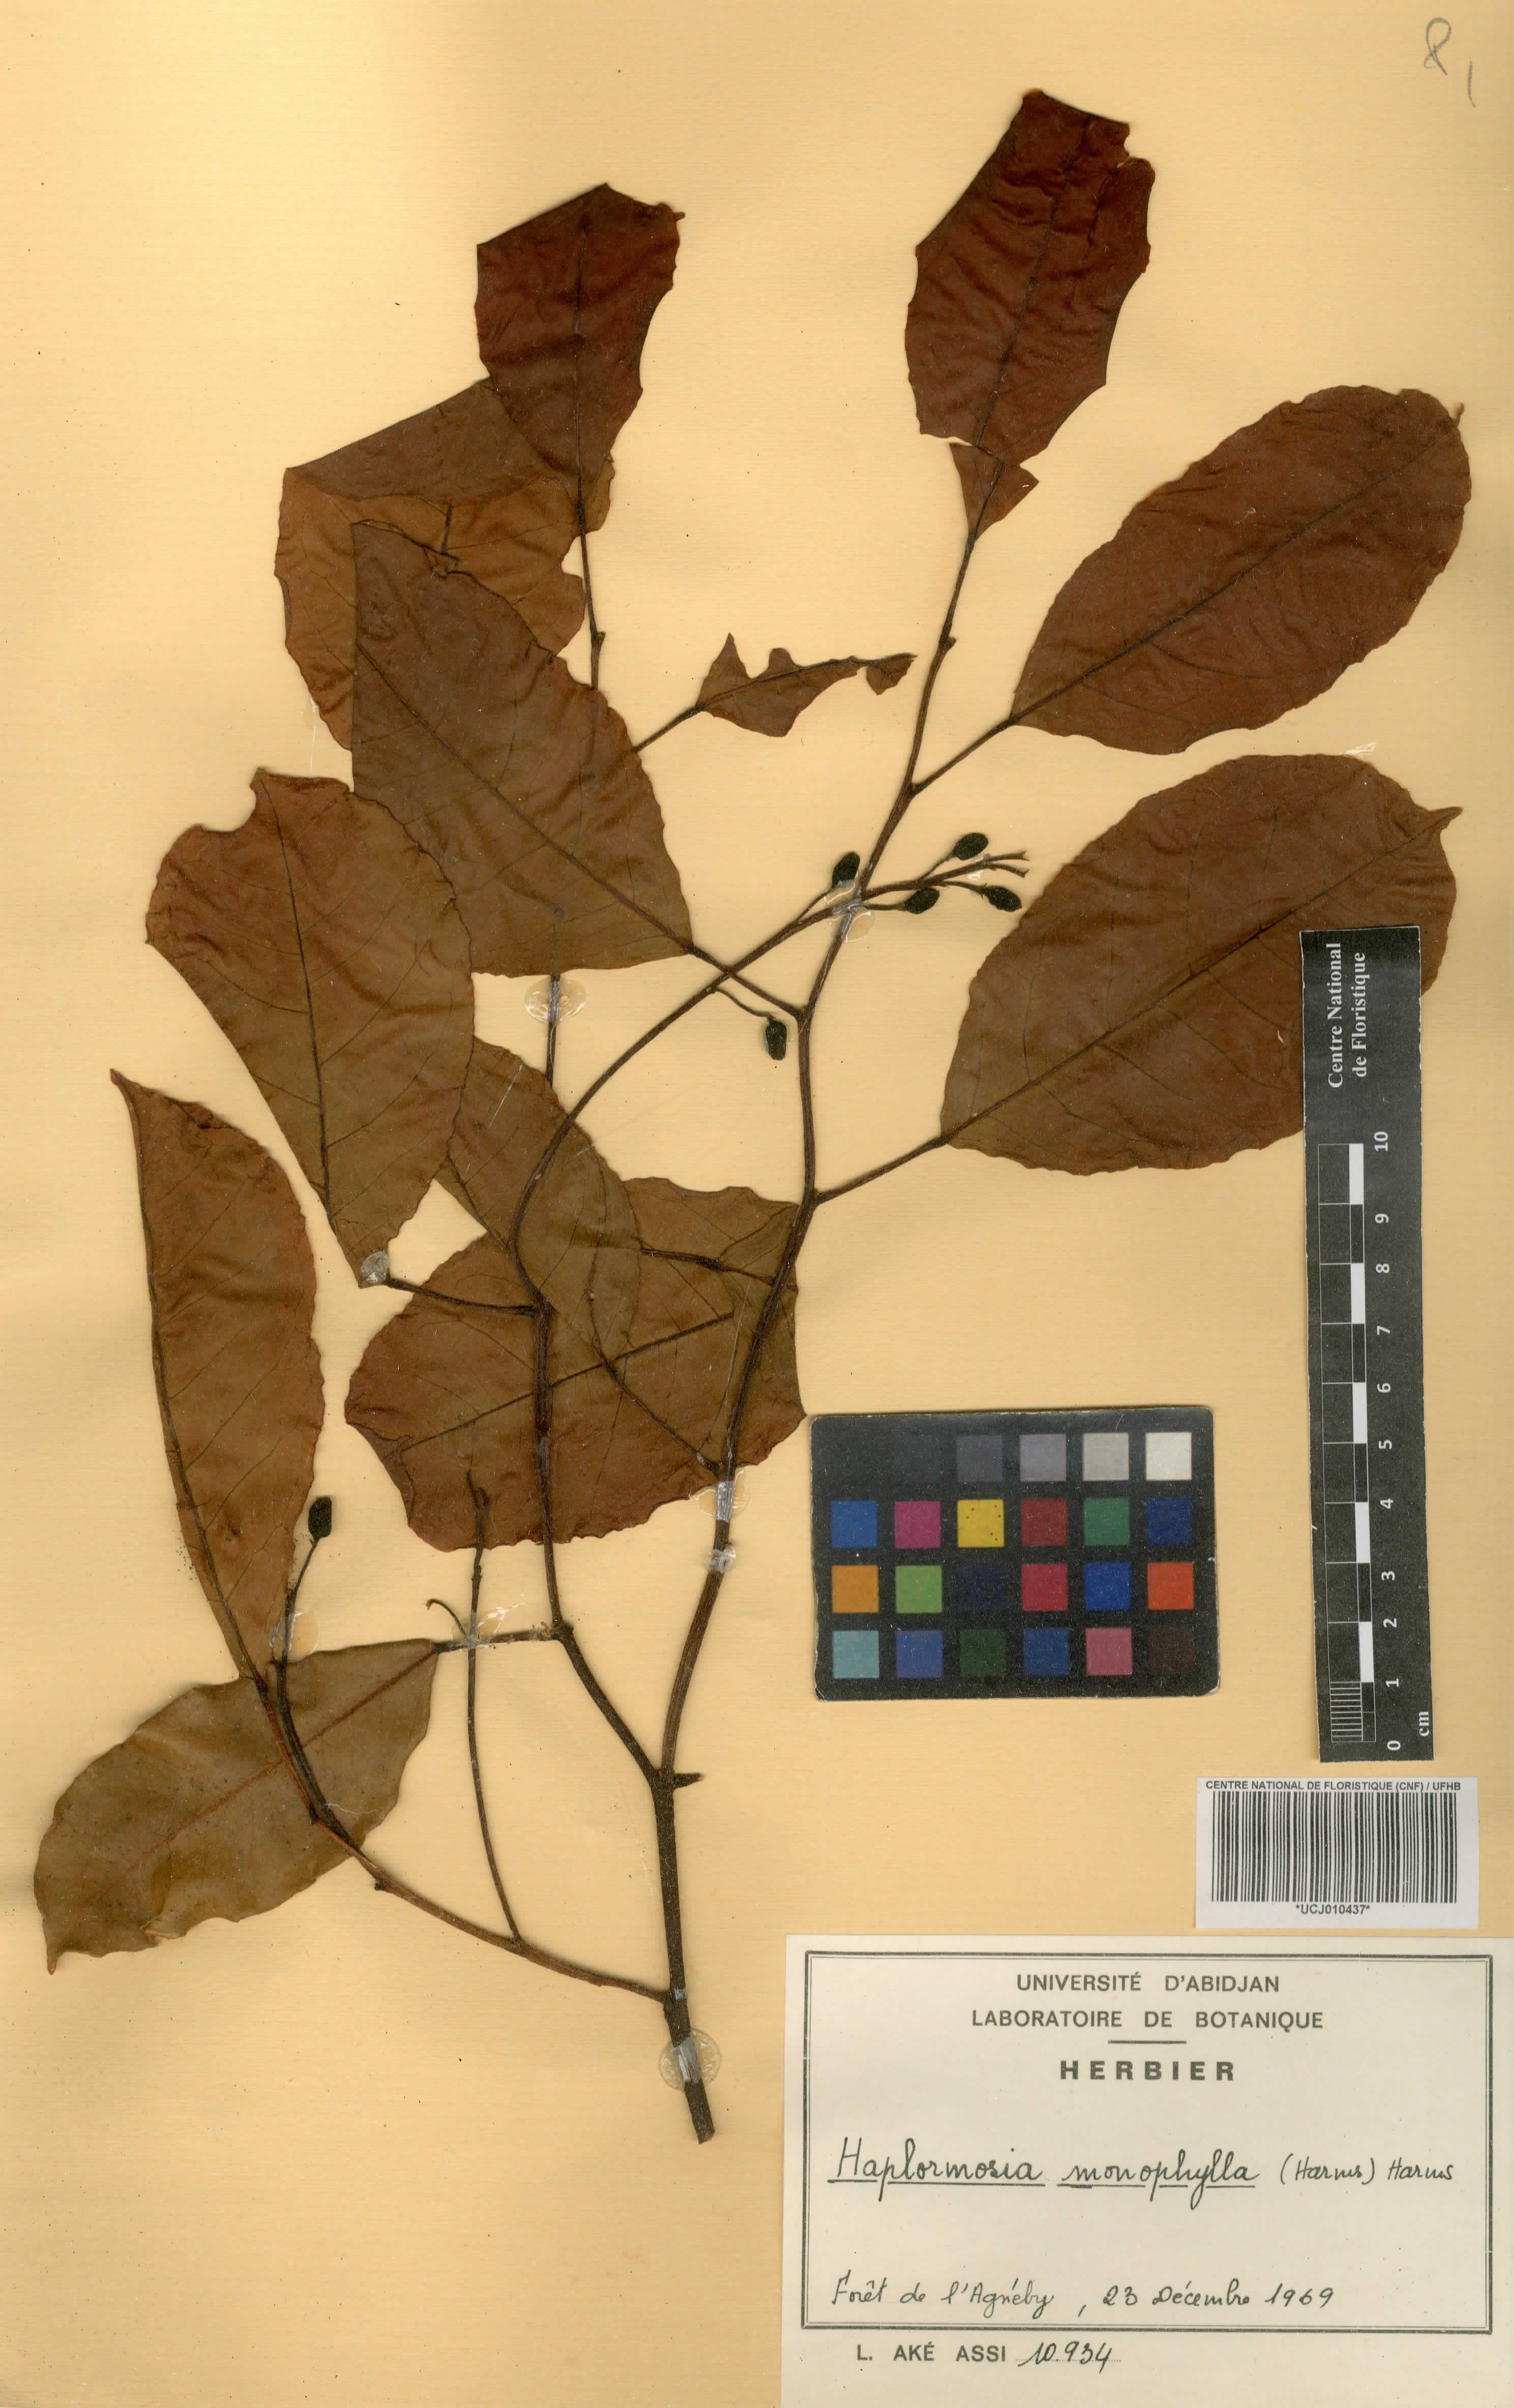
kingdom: Plantae
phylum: Tracheophyta
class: Magnoliopsida
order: Fabales
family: Fabaceae
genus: Haplormosia
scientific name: Haplormosia monophylla
